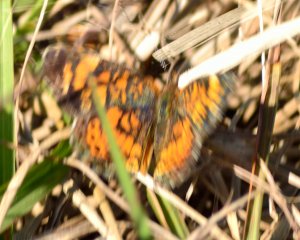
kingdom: Animalia
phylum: Arthropoda
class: Insecta
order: Lepidoptera
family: Nymphalidae
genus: Phyciodes
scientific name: Phyciodes tharos
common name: Pearl Crescent
